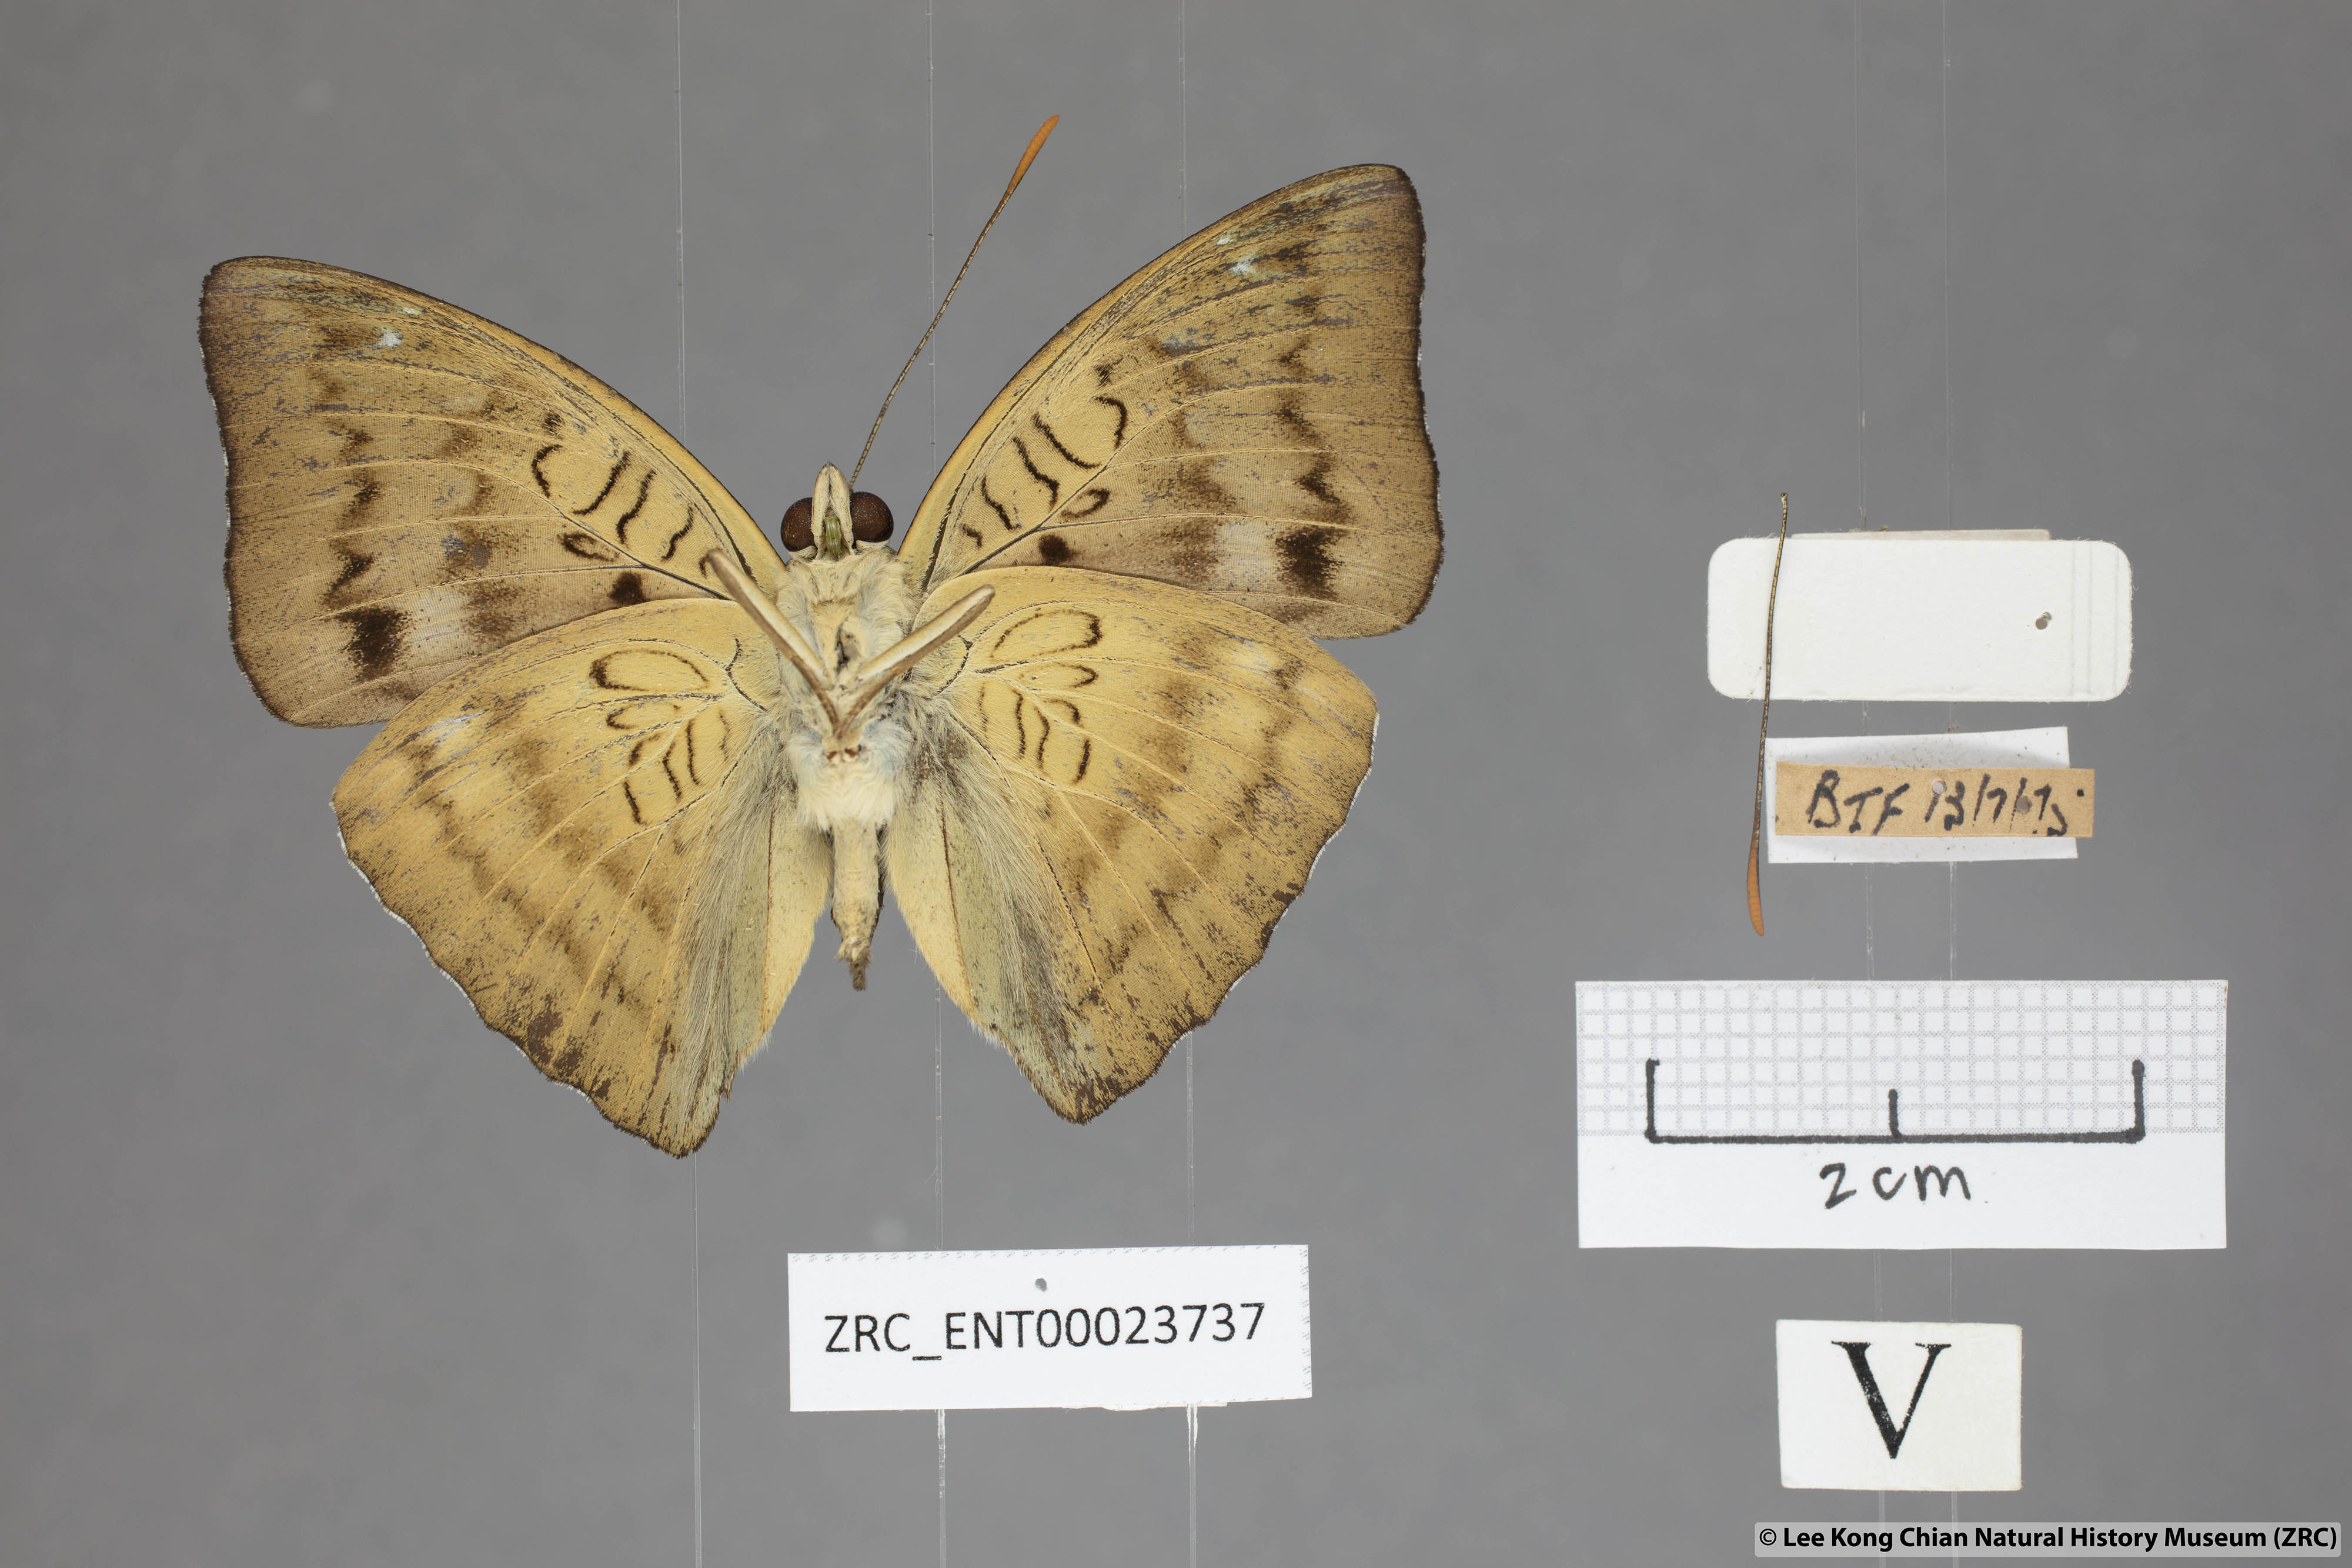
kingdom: Animalia
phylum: Arthropoda
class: Insecta
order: Lepidoptera
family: Nymphalidae
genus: Euthalia
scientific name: Euthalia monina
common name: Powdered baron
